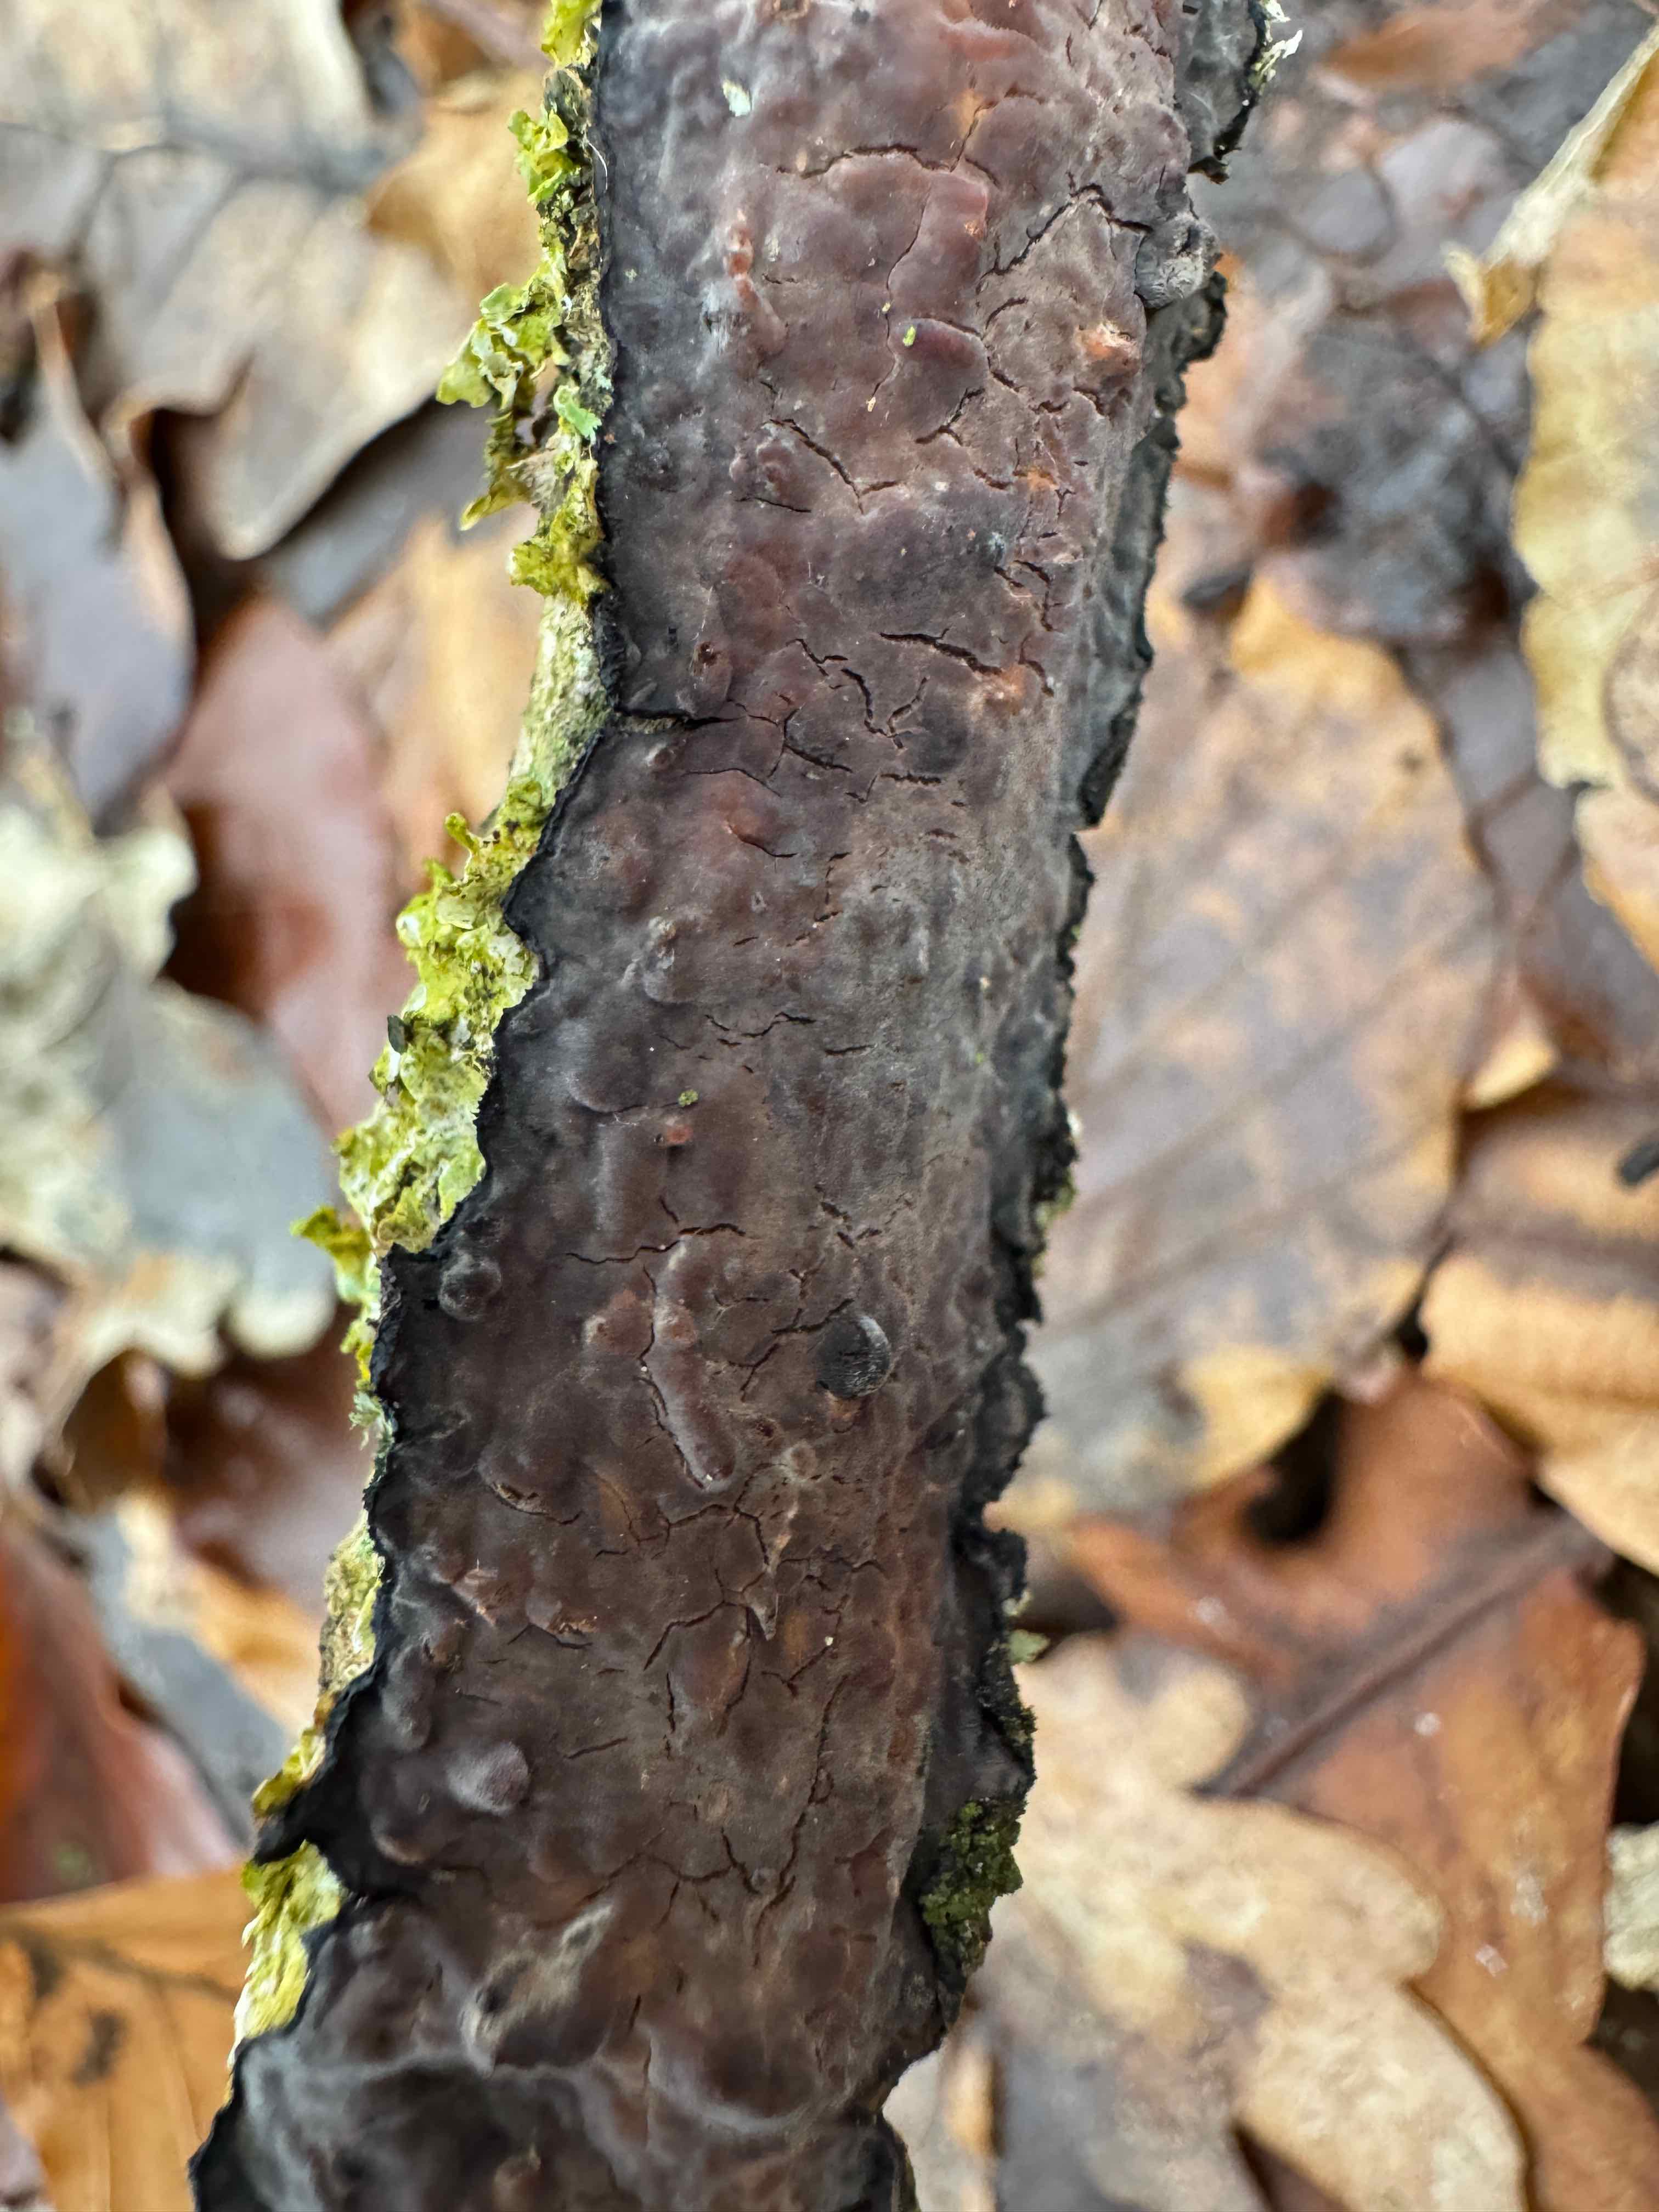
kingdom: Fungi
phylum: Basidiomycota
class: Agaricomycetes
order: Russulales
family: Peniophoraceae
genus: Peniophora
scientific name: Peniophora quercina
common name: ege-voksskind
